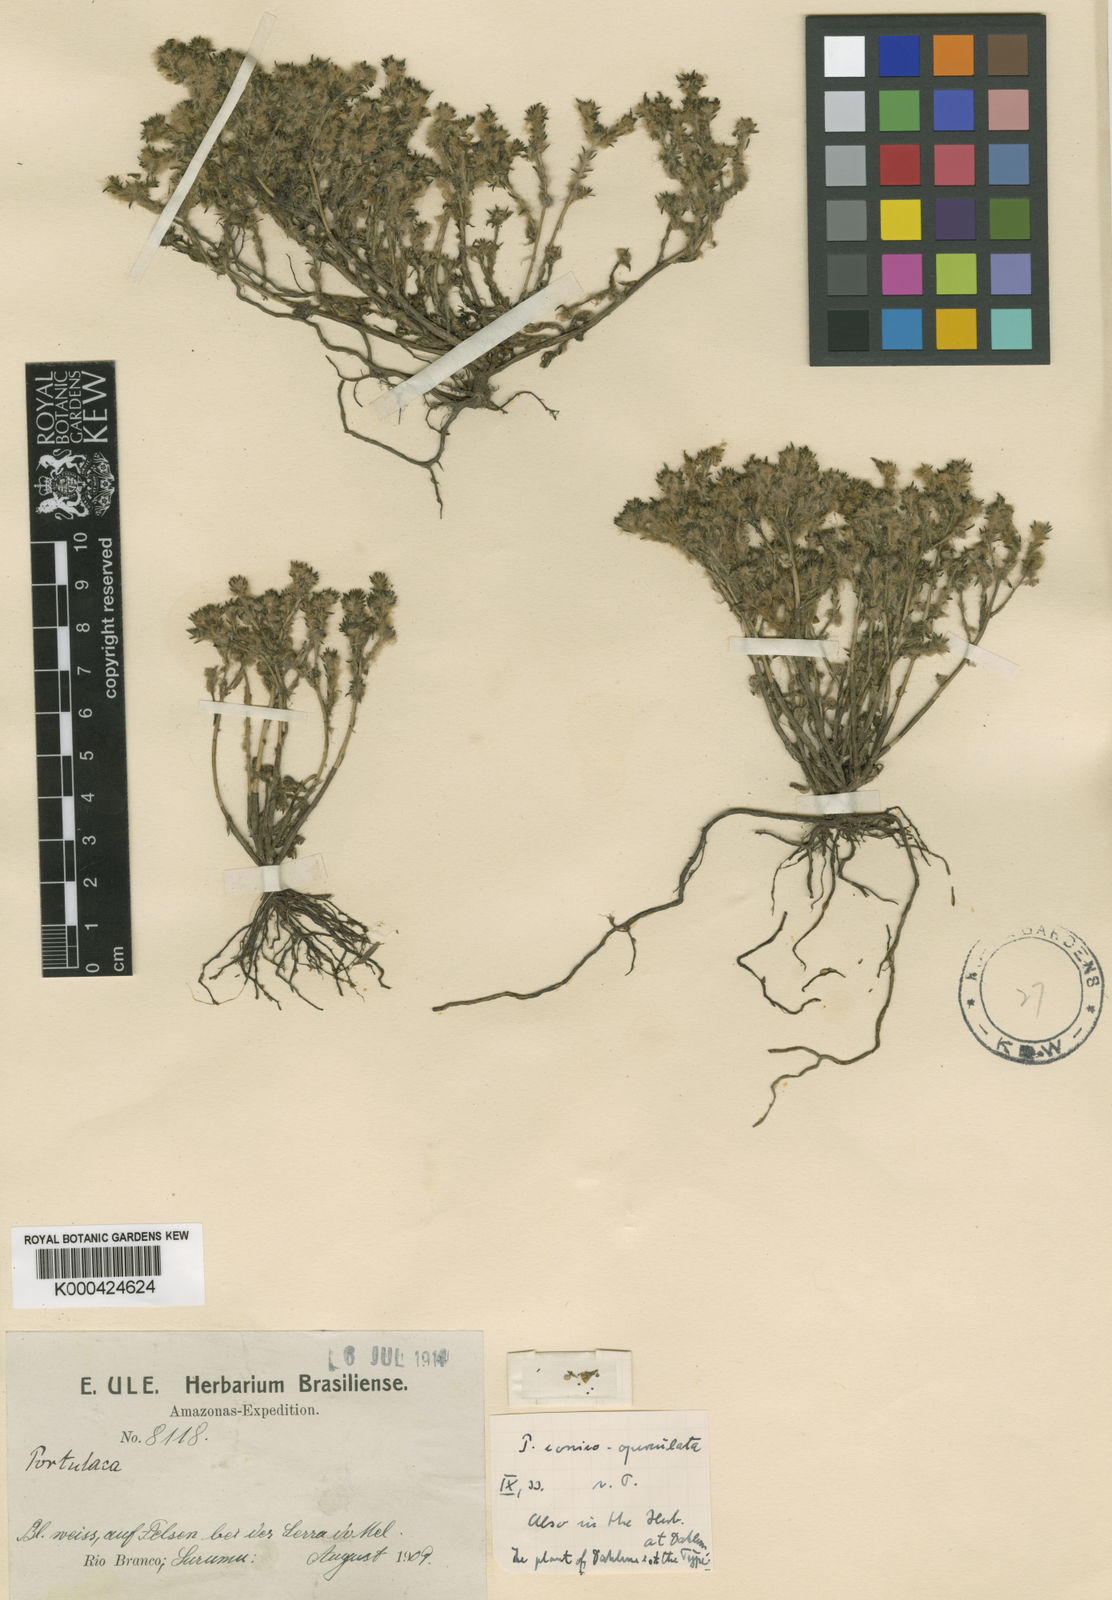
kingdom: Plantae
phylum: Tracheophyta
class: Magnoliopsida
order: Caryophyllales
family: Portulacaceae
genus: Portulaca
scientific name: Portulaca sedifolia
